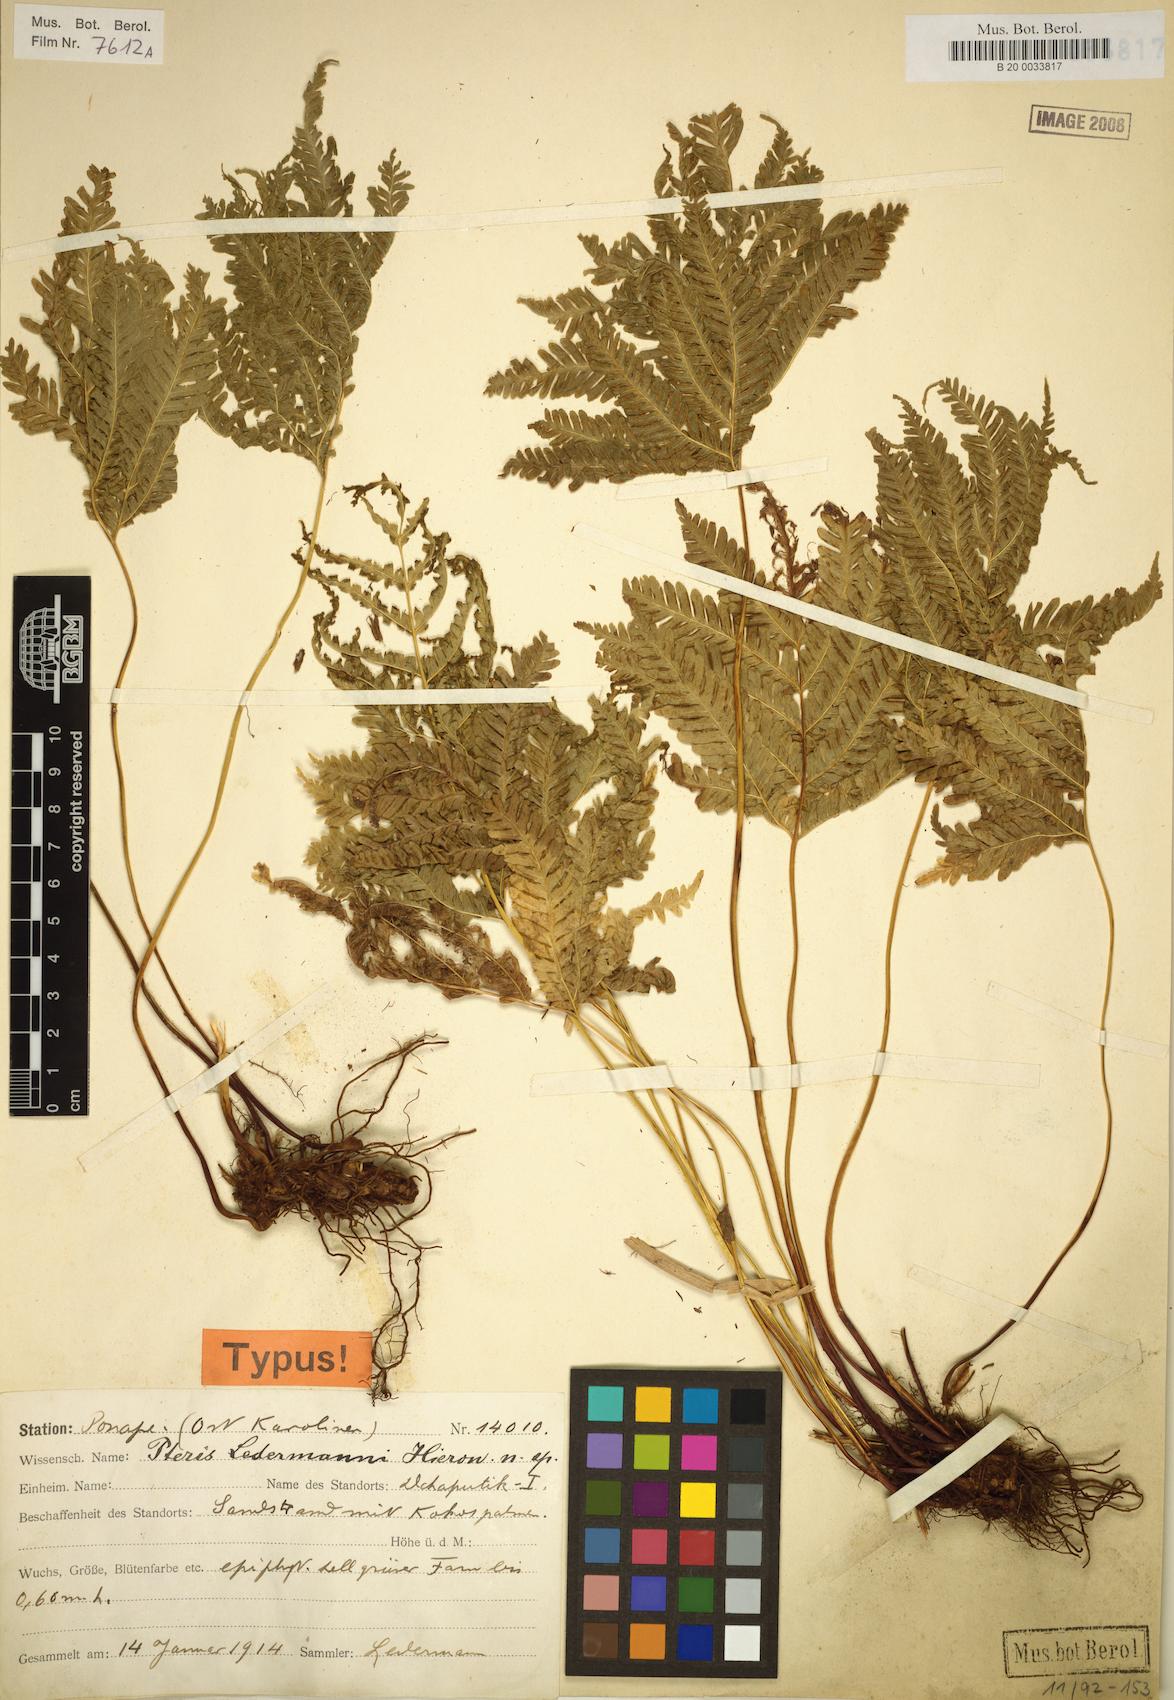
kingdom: Plantae
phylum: Tracheophyta
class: Polypodiopsida
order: Polypodiales
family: Pteridaceae
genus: Pteris
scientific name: Pteris
